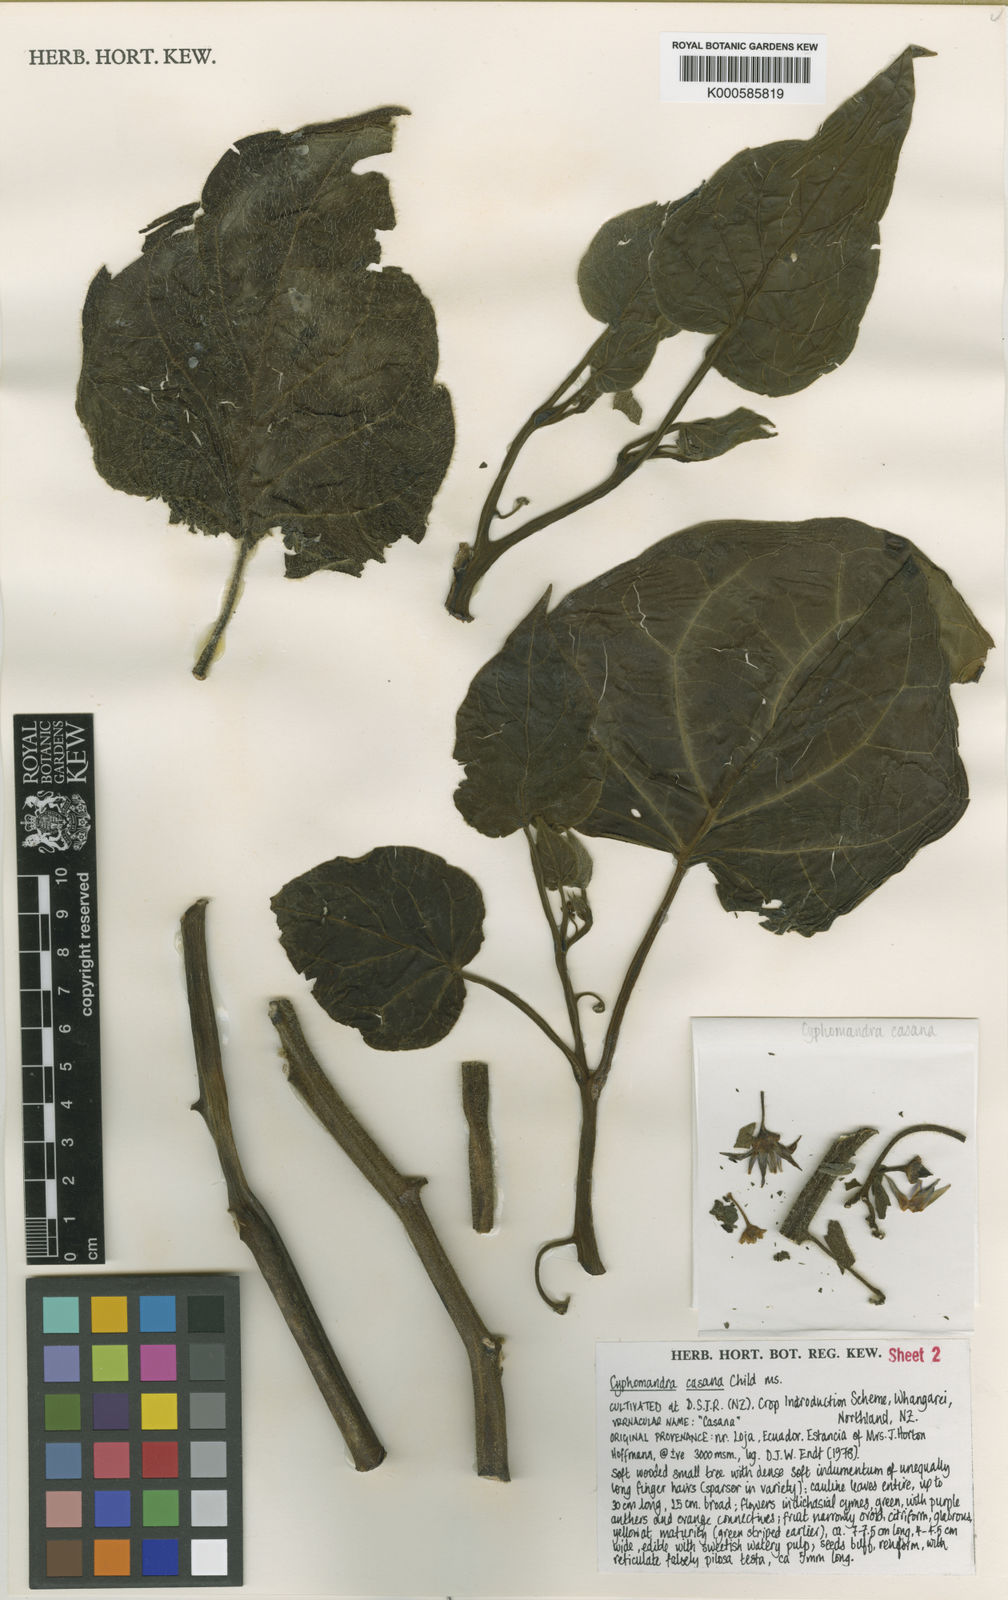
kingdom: Plantae
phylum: Tracheophyta
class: Magnoliopsida
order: Solanales
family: Solanaceae
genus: Solanum
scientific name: Solanum cajanumense
